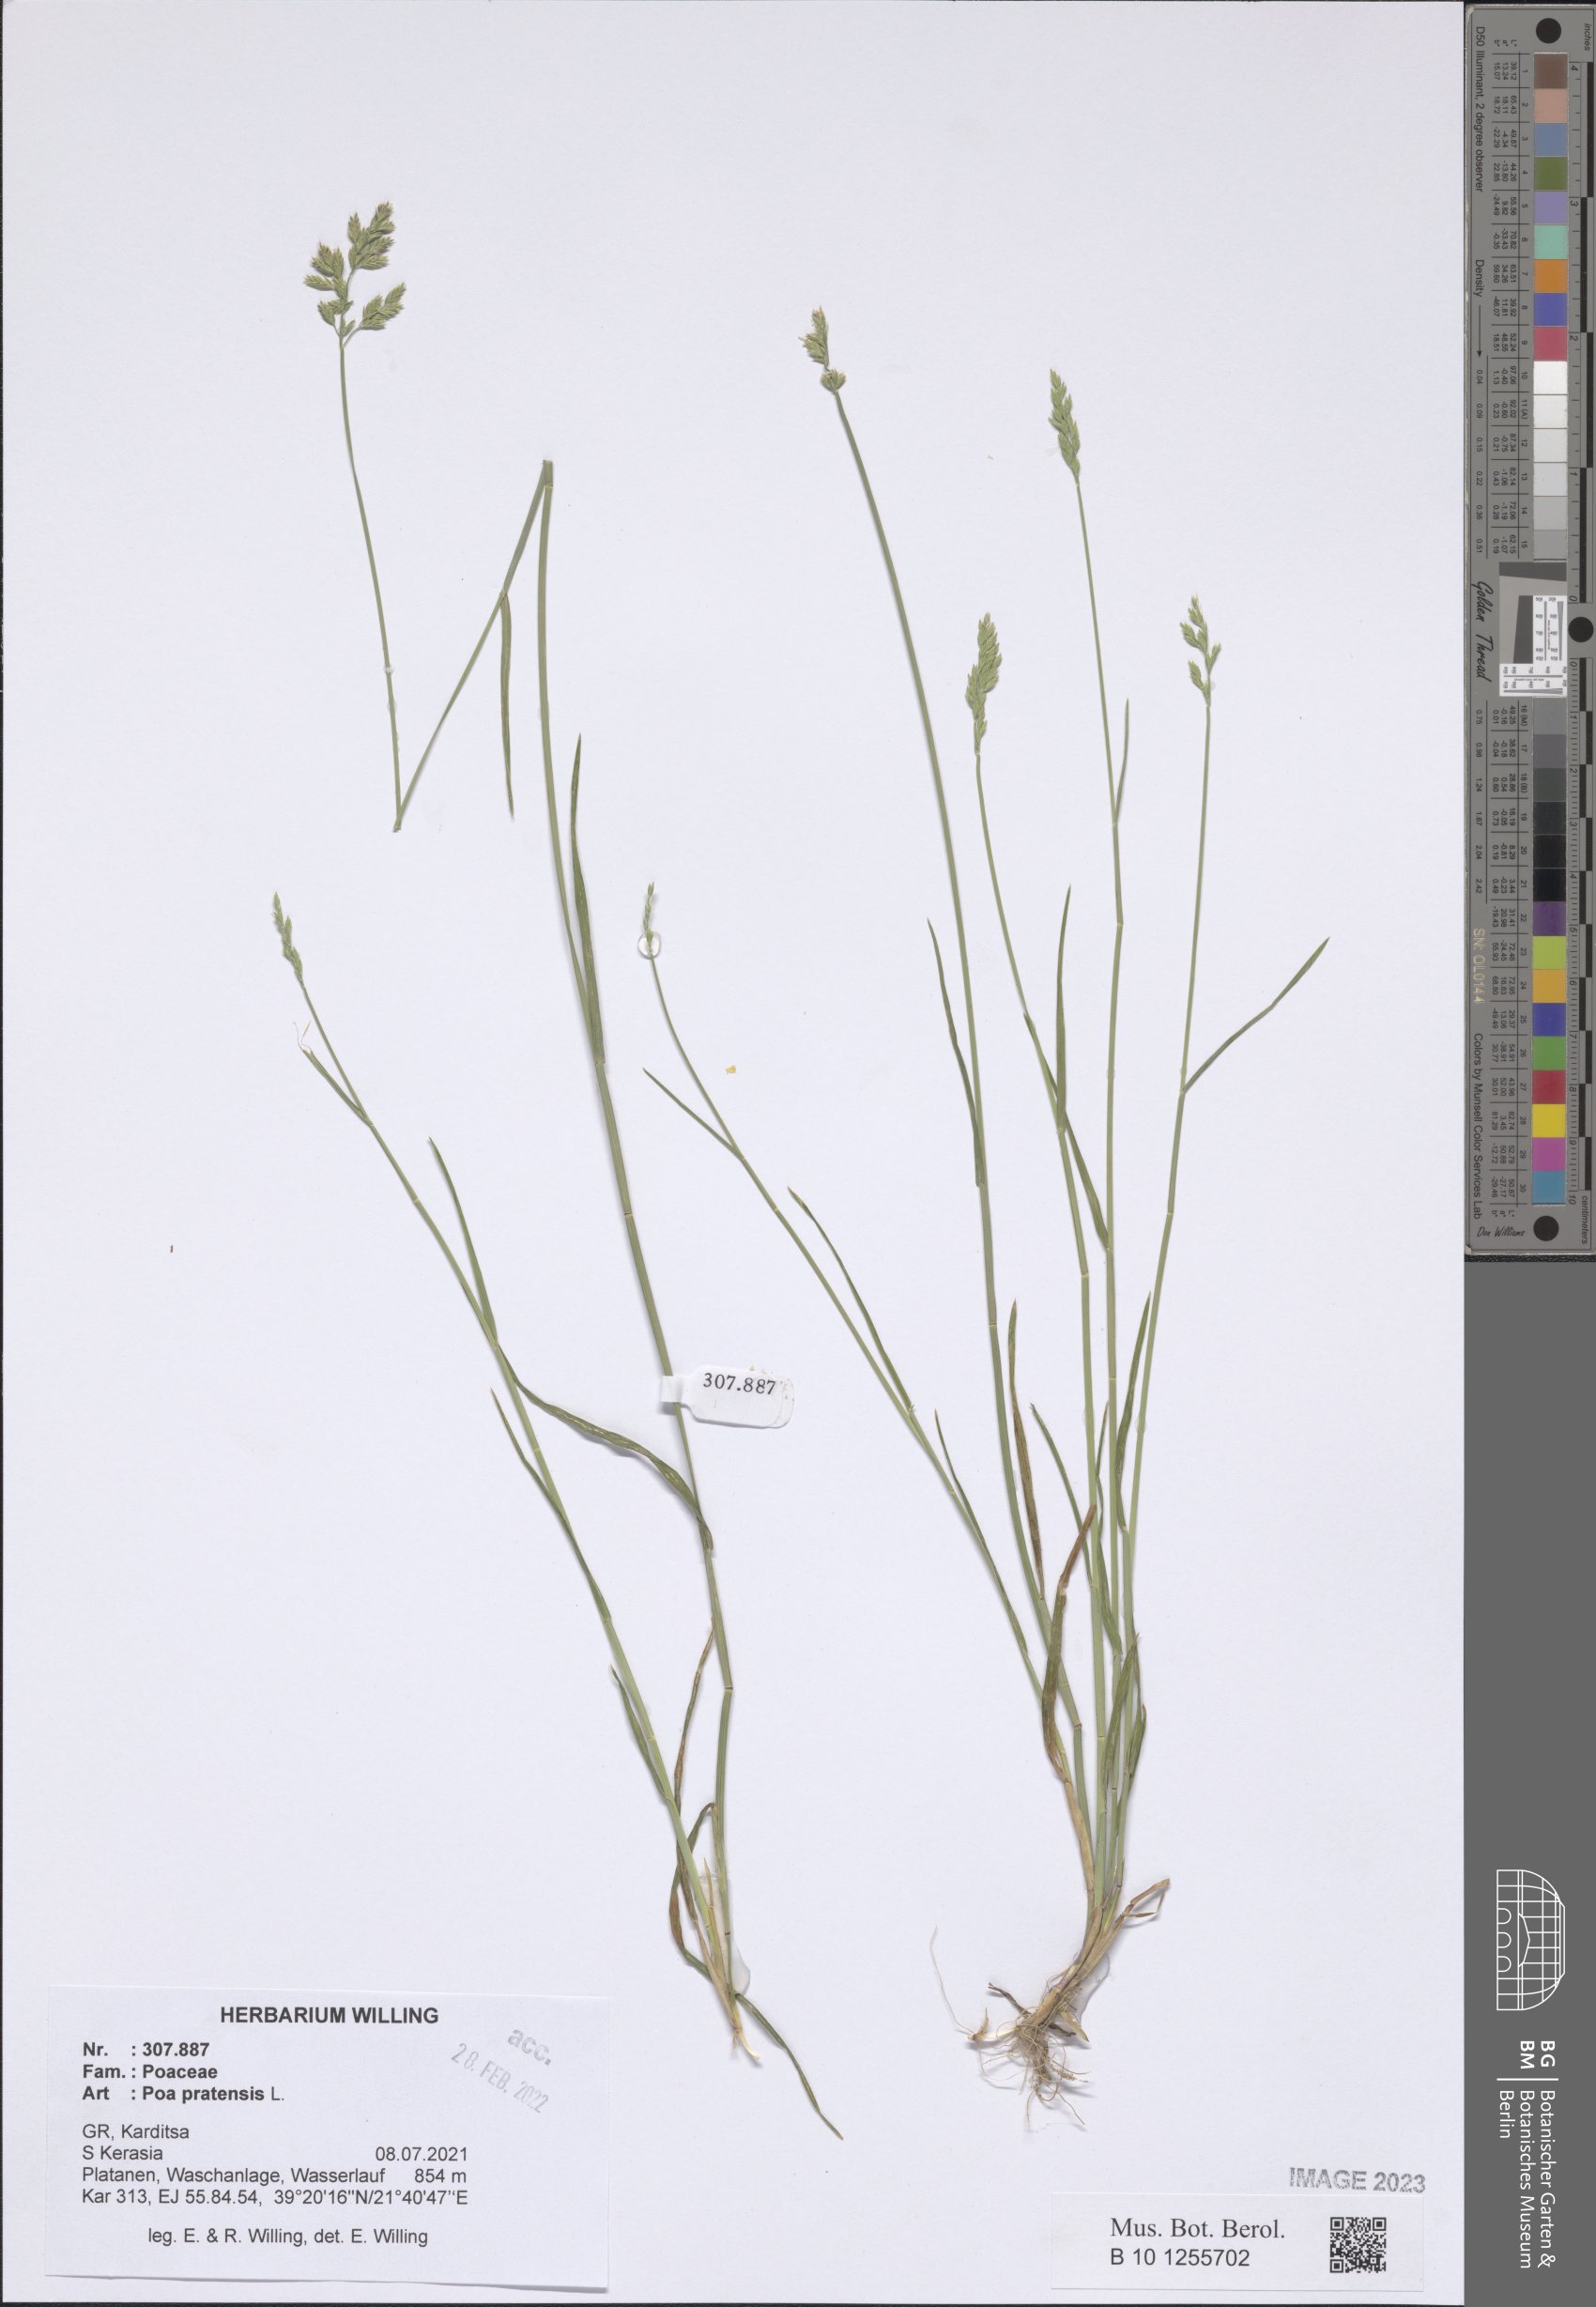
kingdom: Plantae
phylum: Tracheophyta
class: Liliopsida
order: Poales
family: Poaceae
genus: Poa
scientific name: Poa pratensis
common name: Kentucky bluegrass
